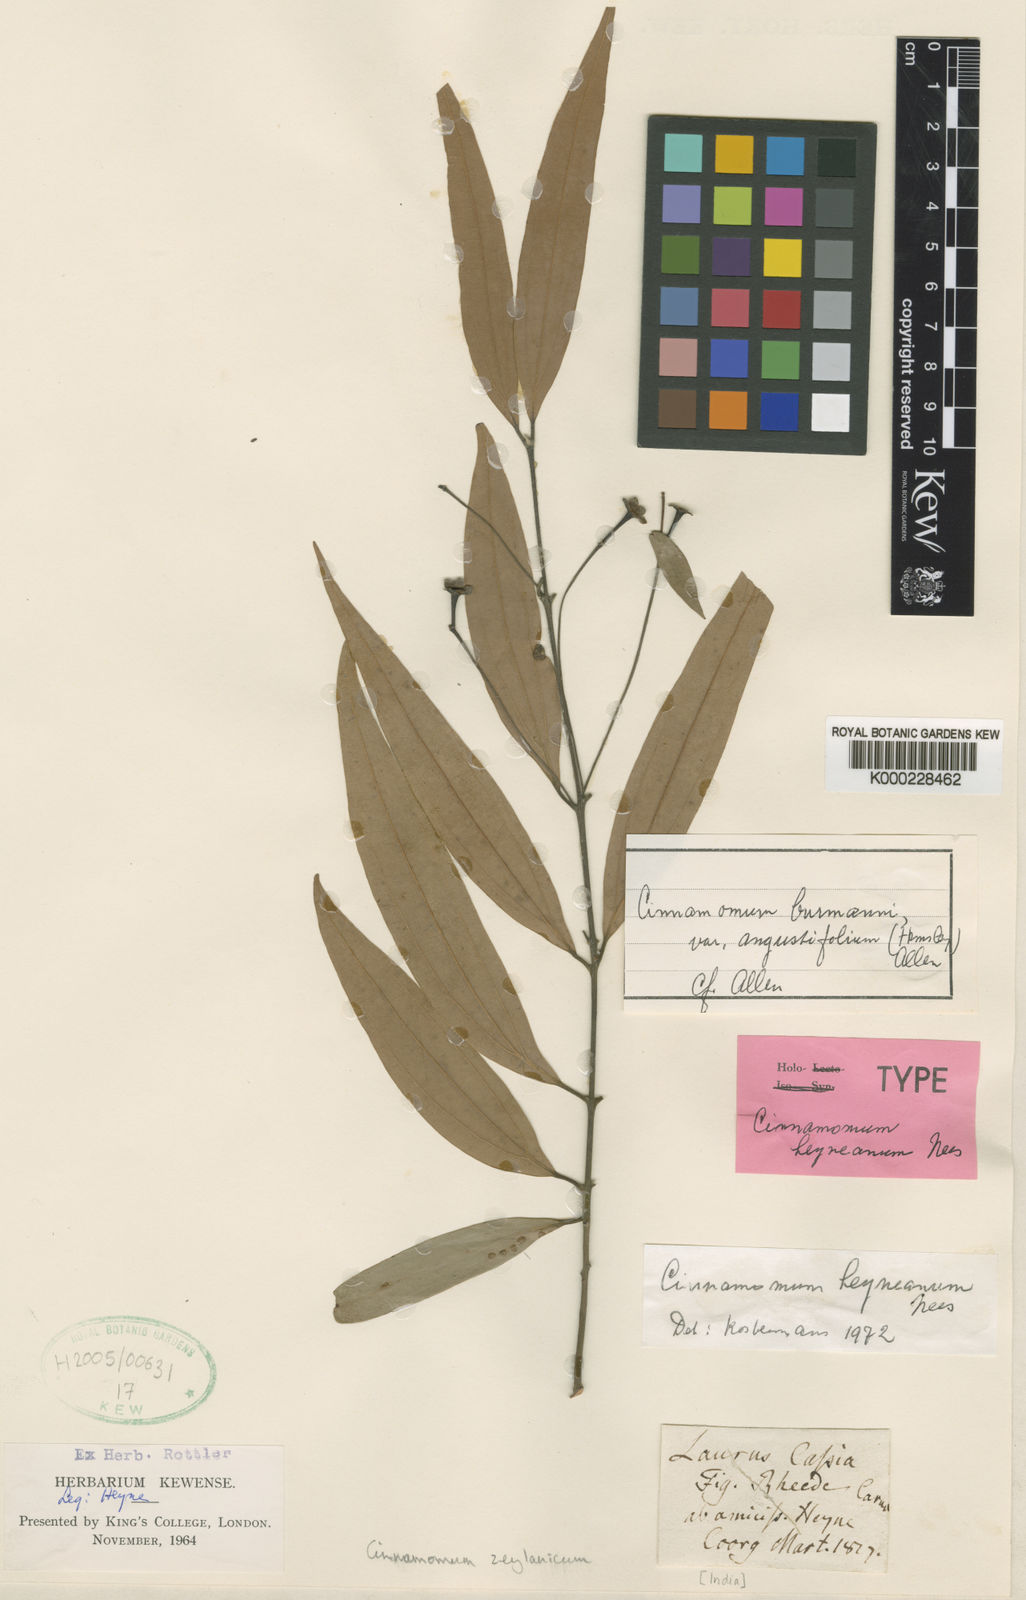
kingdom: Plantae
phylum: Tracheophyta
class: Magnoliopsida
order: Laurales
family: Lauraceae
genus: Cinnamomum
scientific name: Cinnamomum heyneanum
